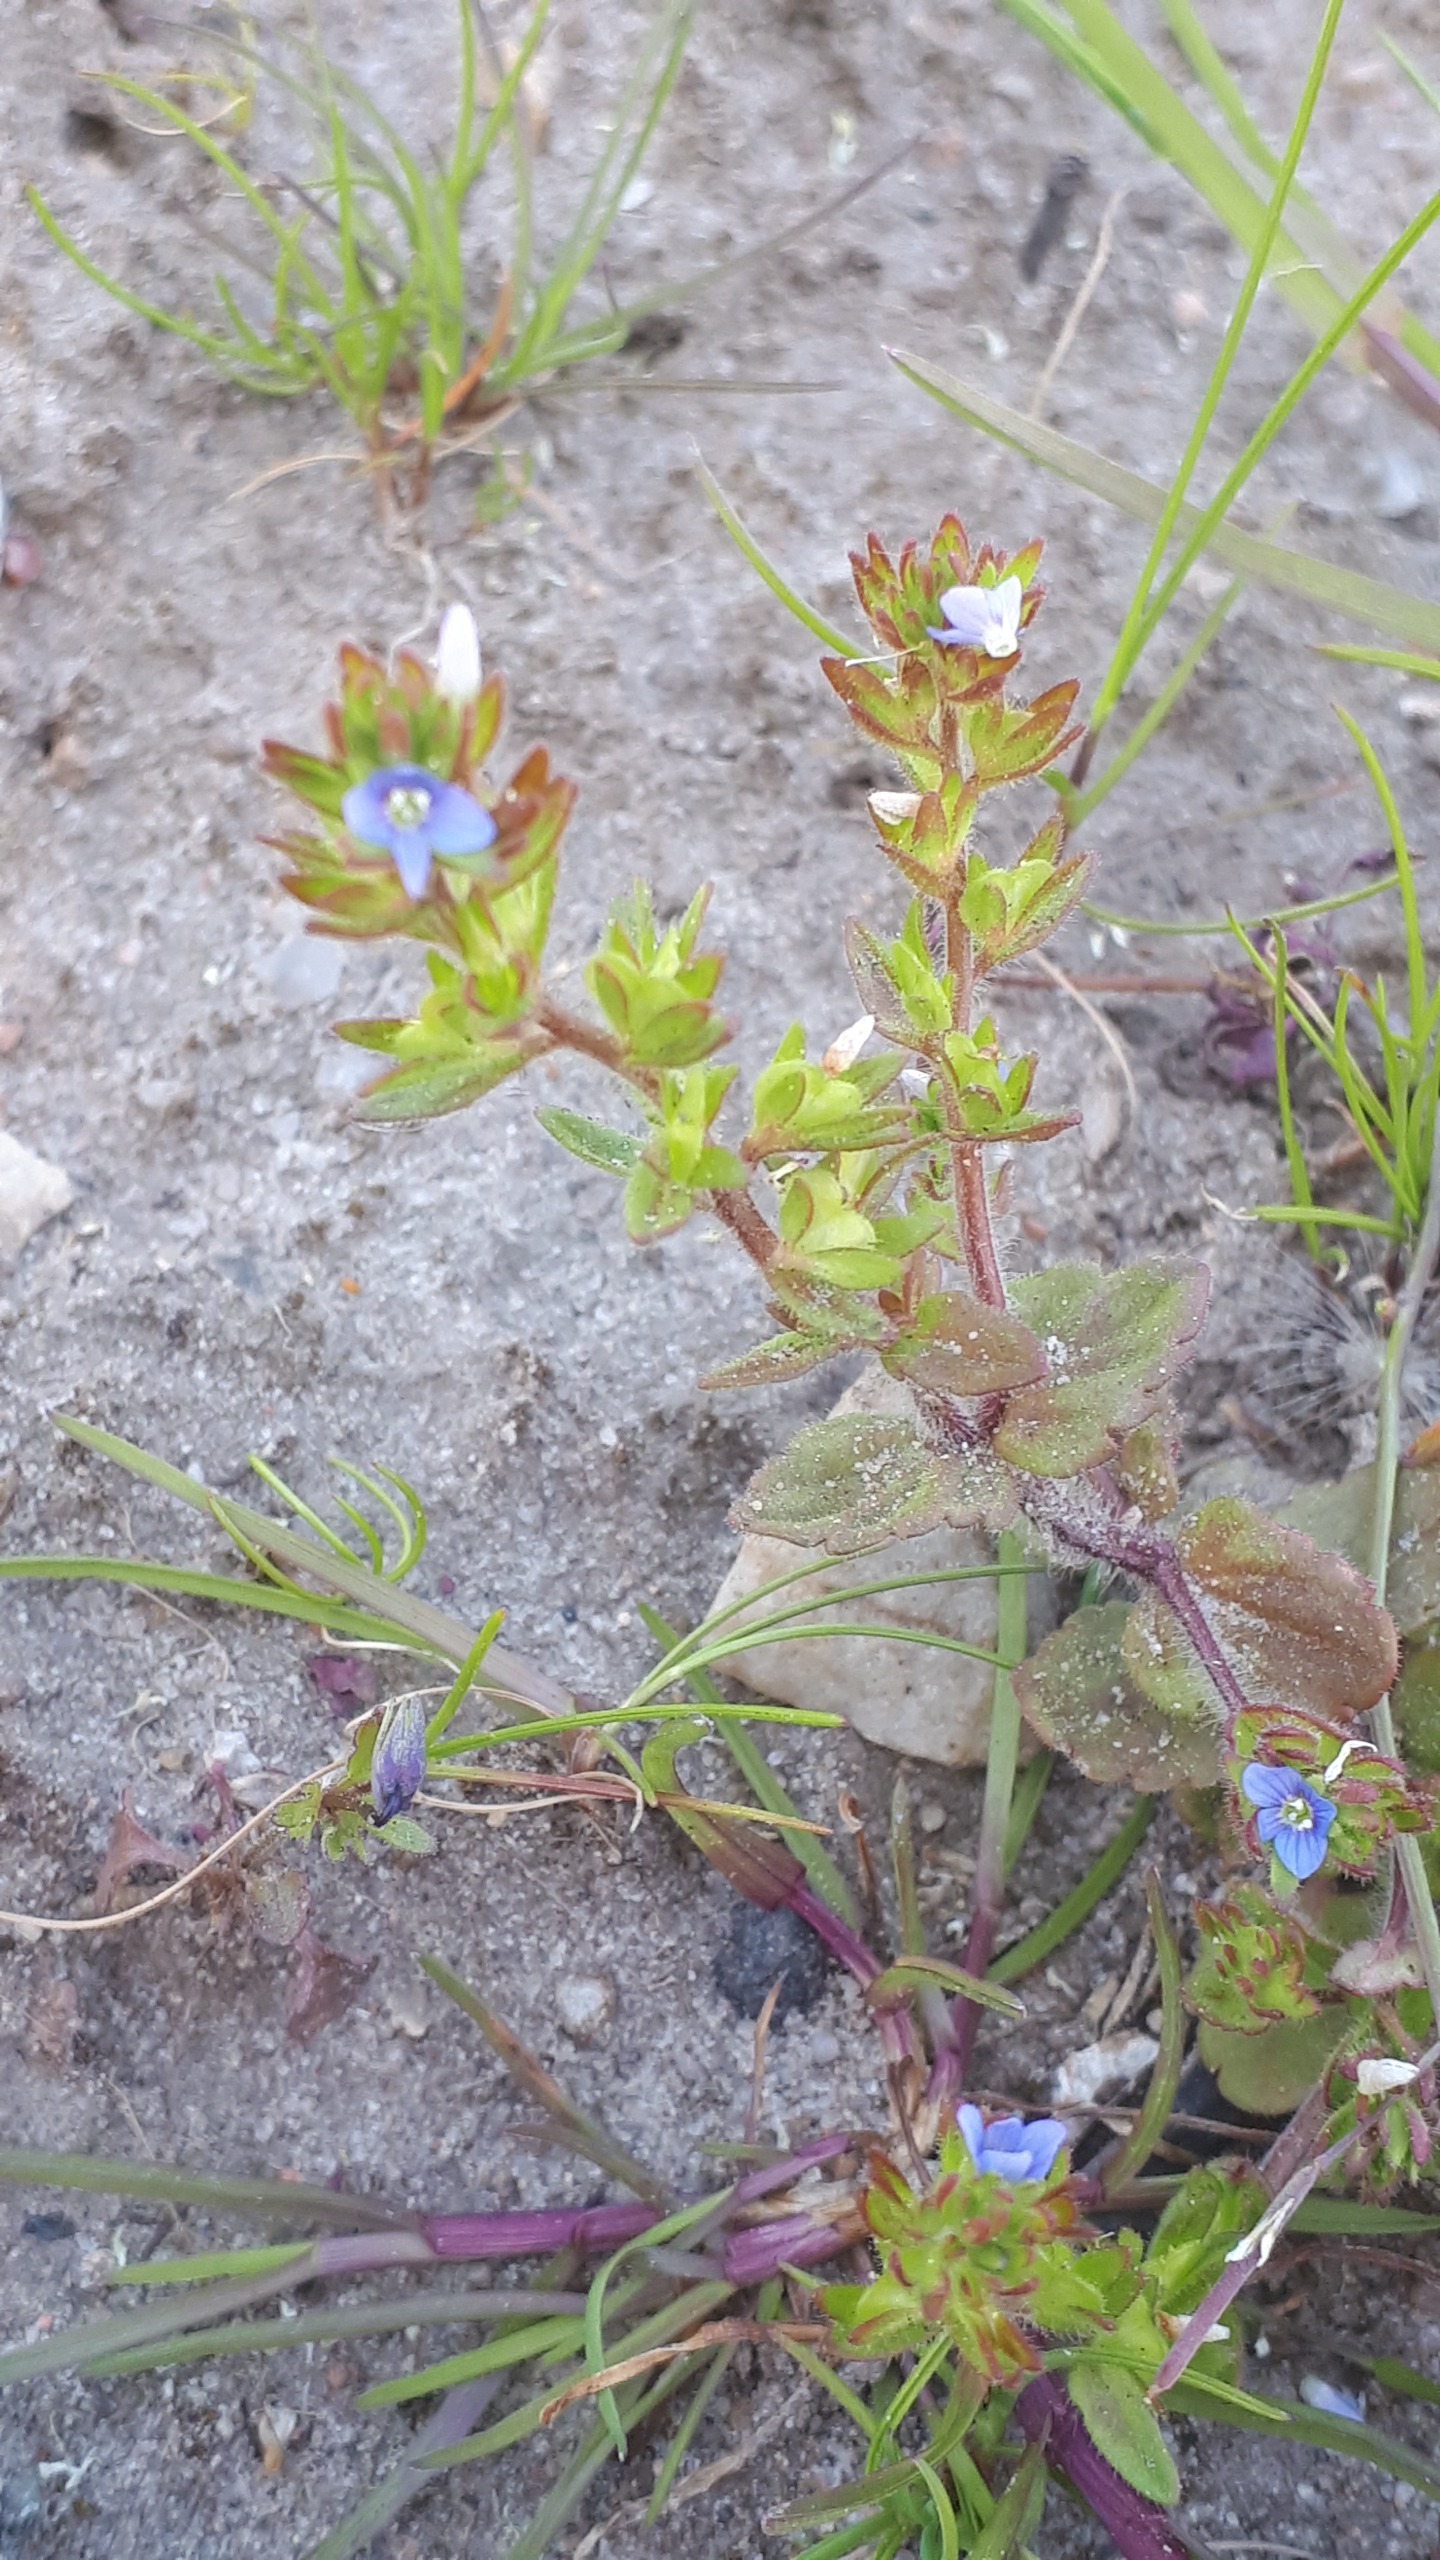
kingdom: Plantae
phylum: Tracheophyta
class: Magnoliopsida
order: Lamiales
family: Plantaginaceae
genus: Veronica
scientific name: Veronica arvensis
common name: Mark-ærenpris
